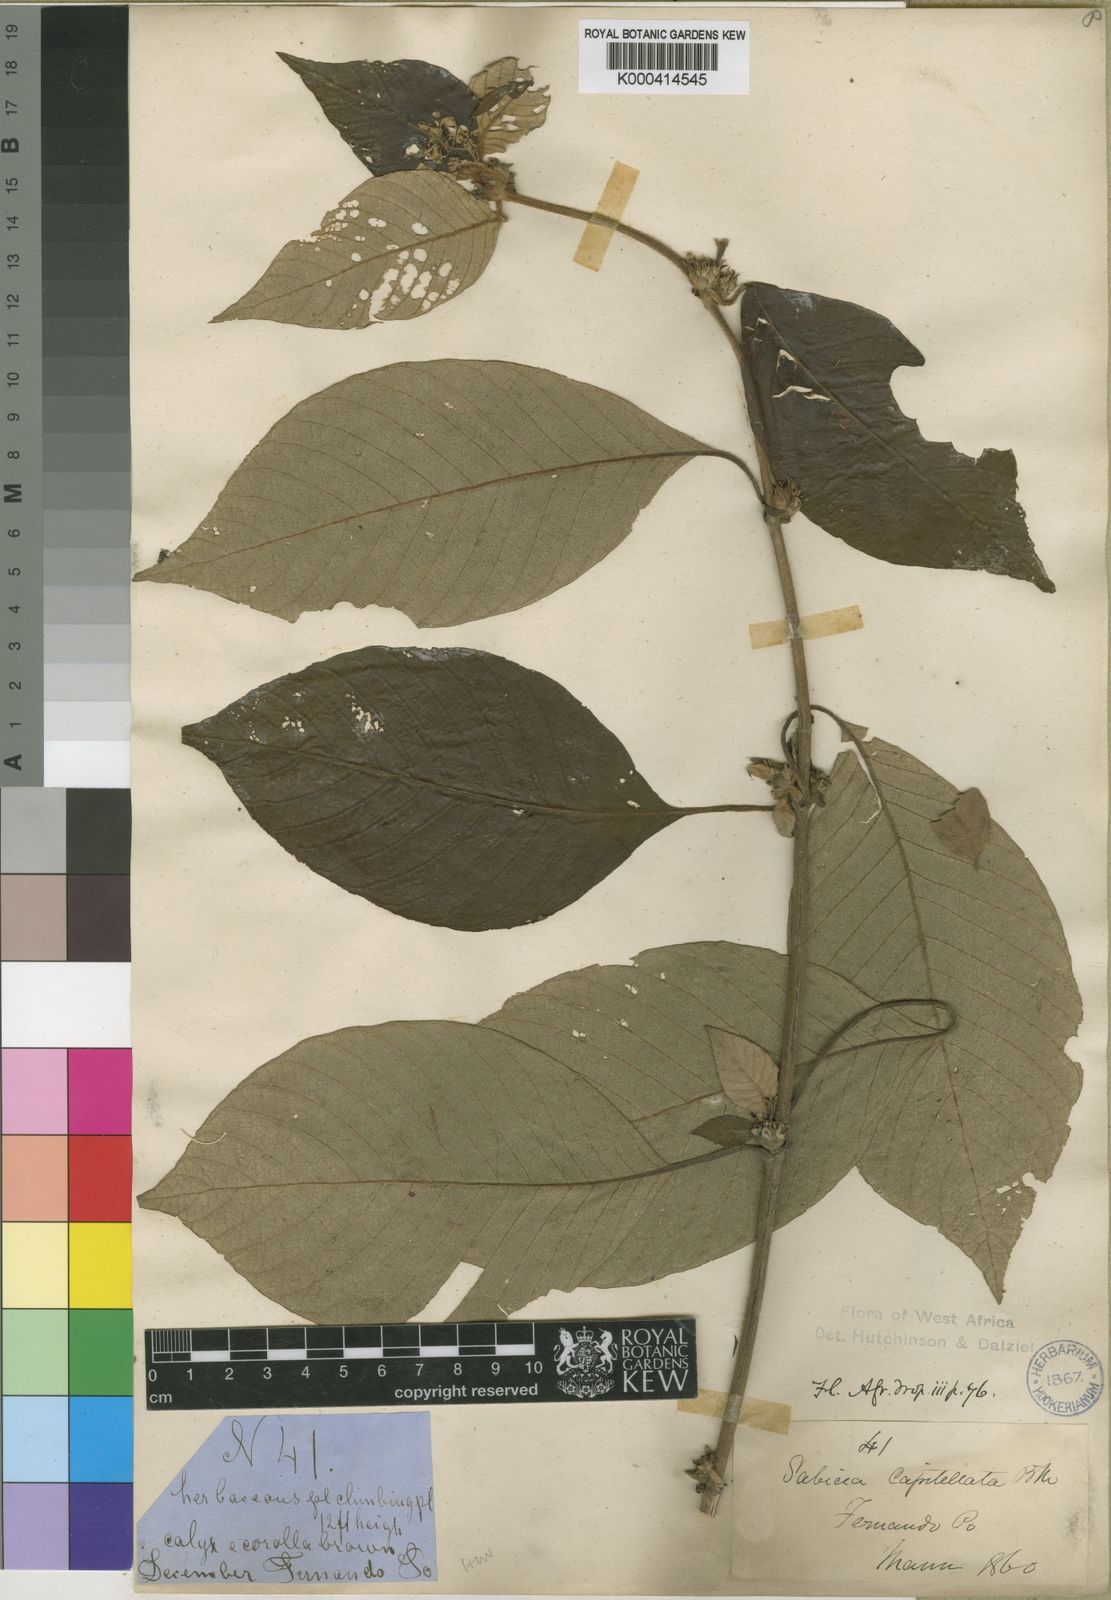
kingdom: Plantae
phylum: Tracheophyta
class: Magnoliopsida
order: Gentianales
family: Rubiaceae
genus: Sabicea
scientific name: Sabicea capitellata
